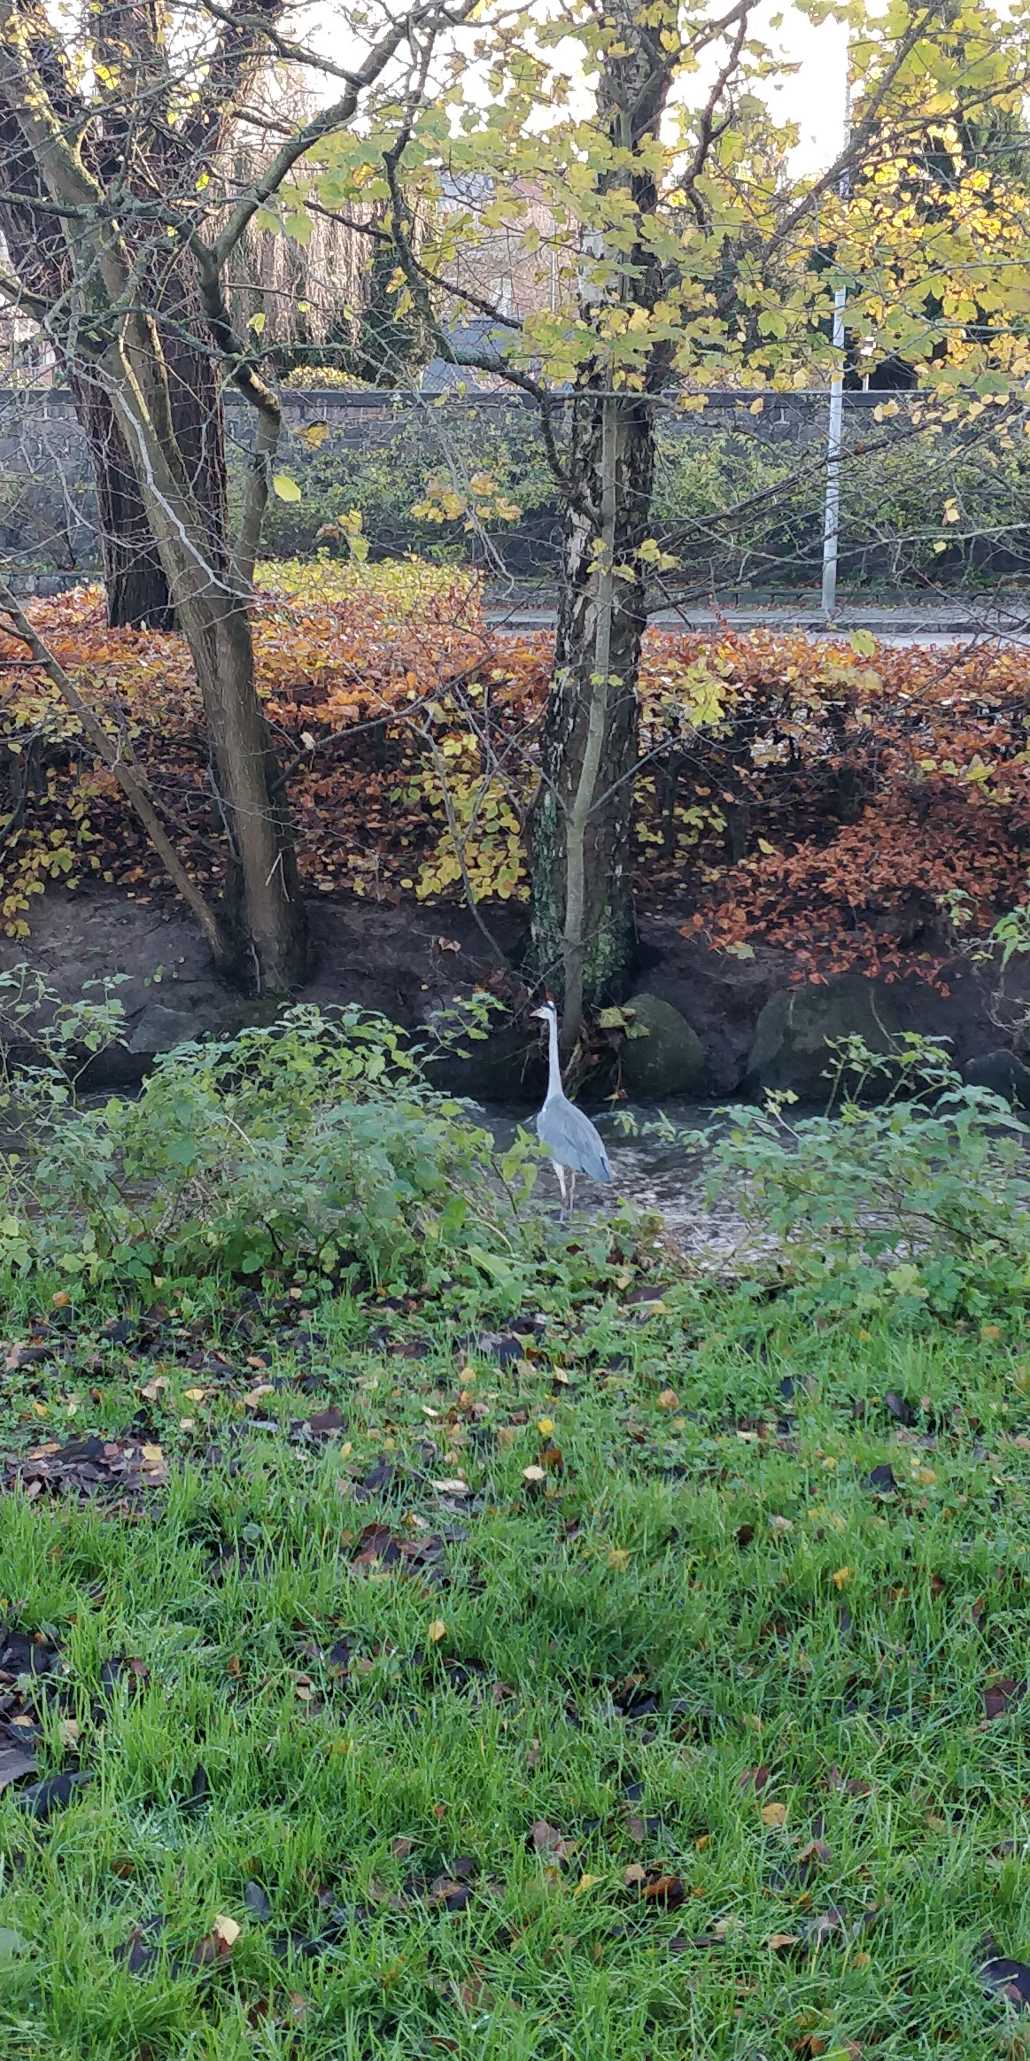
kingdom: Animalia
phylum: Chordata
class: Aves
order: Pelecaniformes
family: Ardeidae
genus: Ardea
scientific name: Ardea cinerea
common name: Fiskehejre
